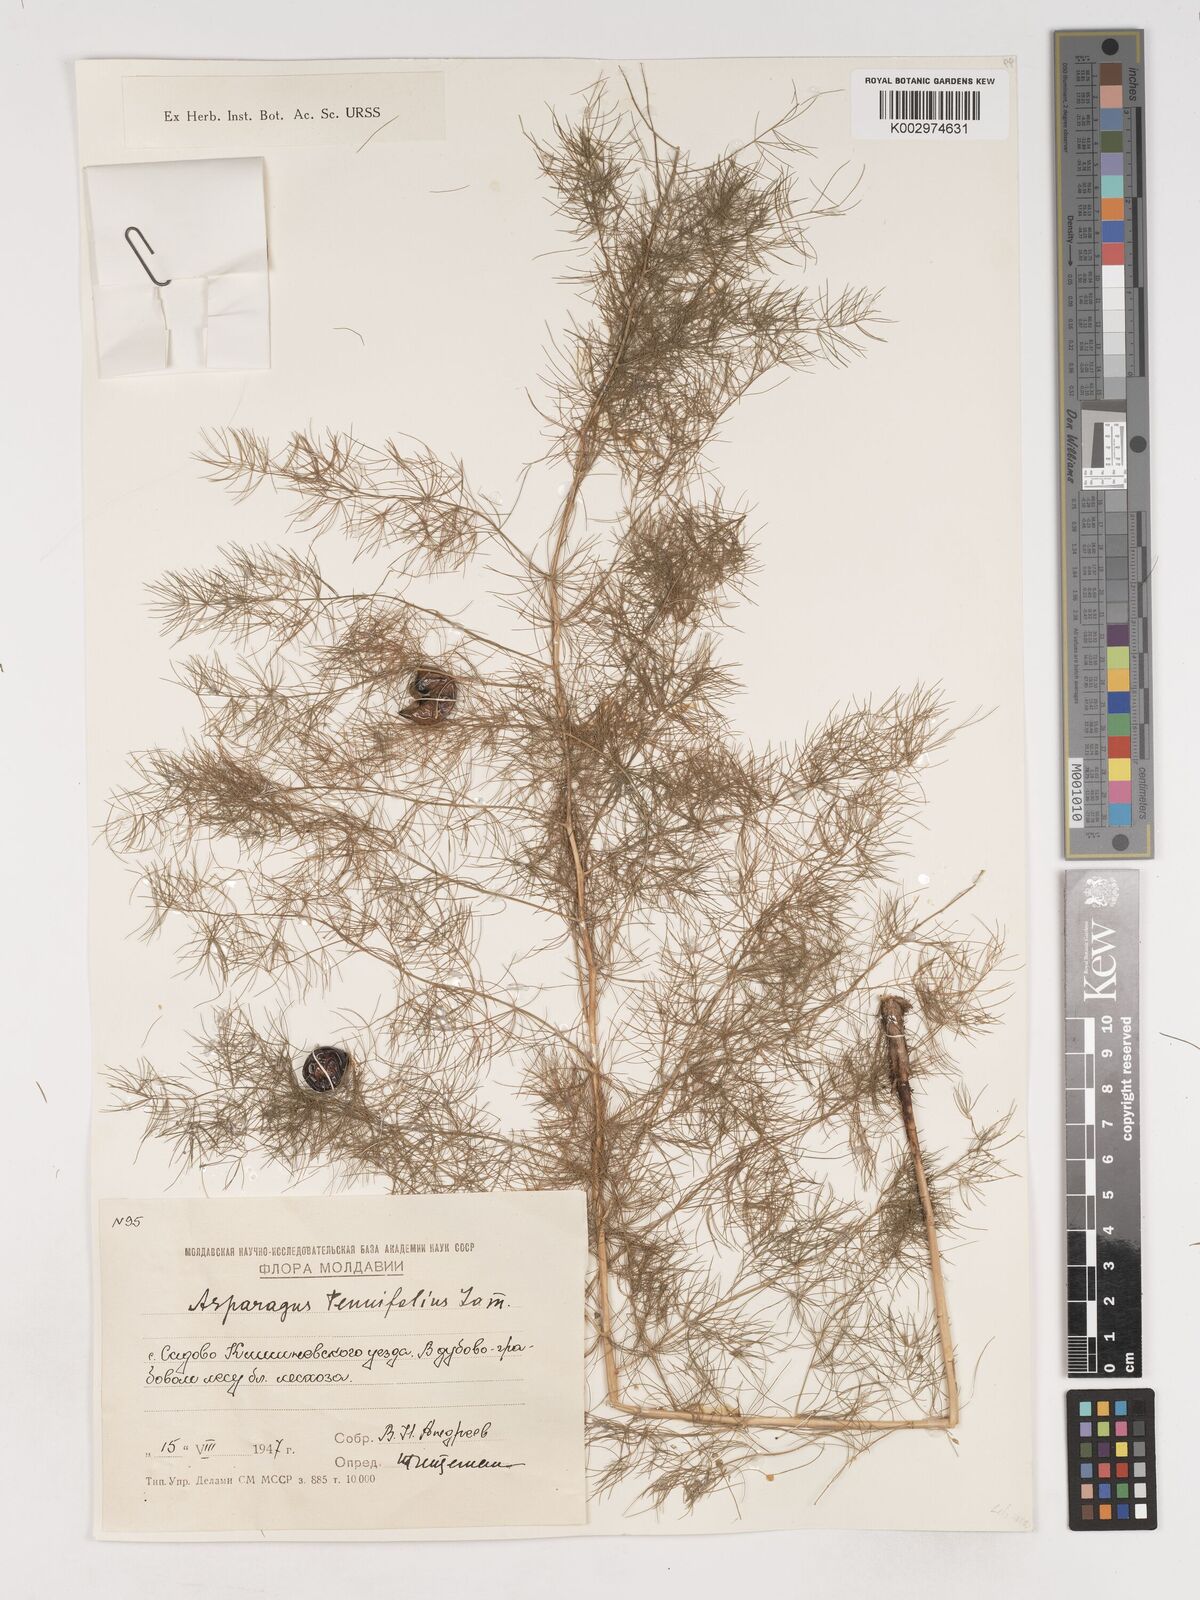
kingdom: Plantae
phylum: Tracheophyta
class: Liliopsida
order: Asparagales
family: Asparagaceae
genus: Asparagus
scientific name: Asparagus tenuifolius
